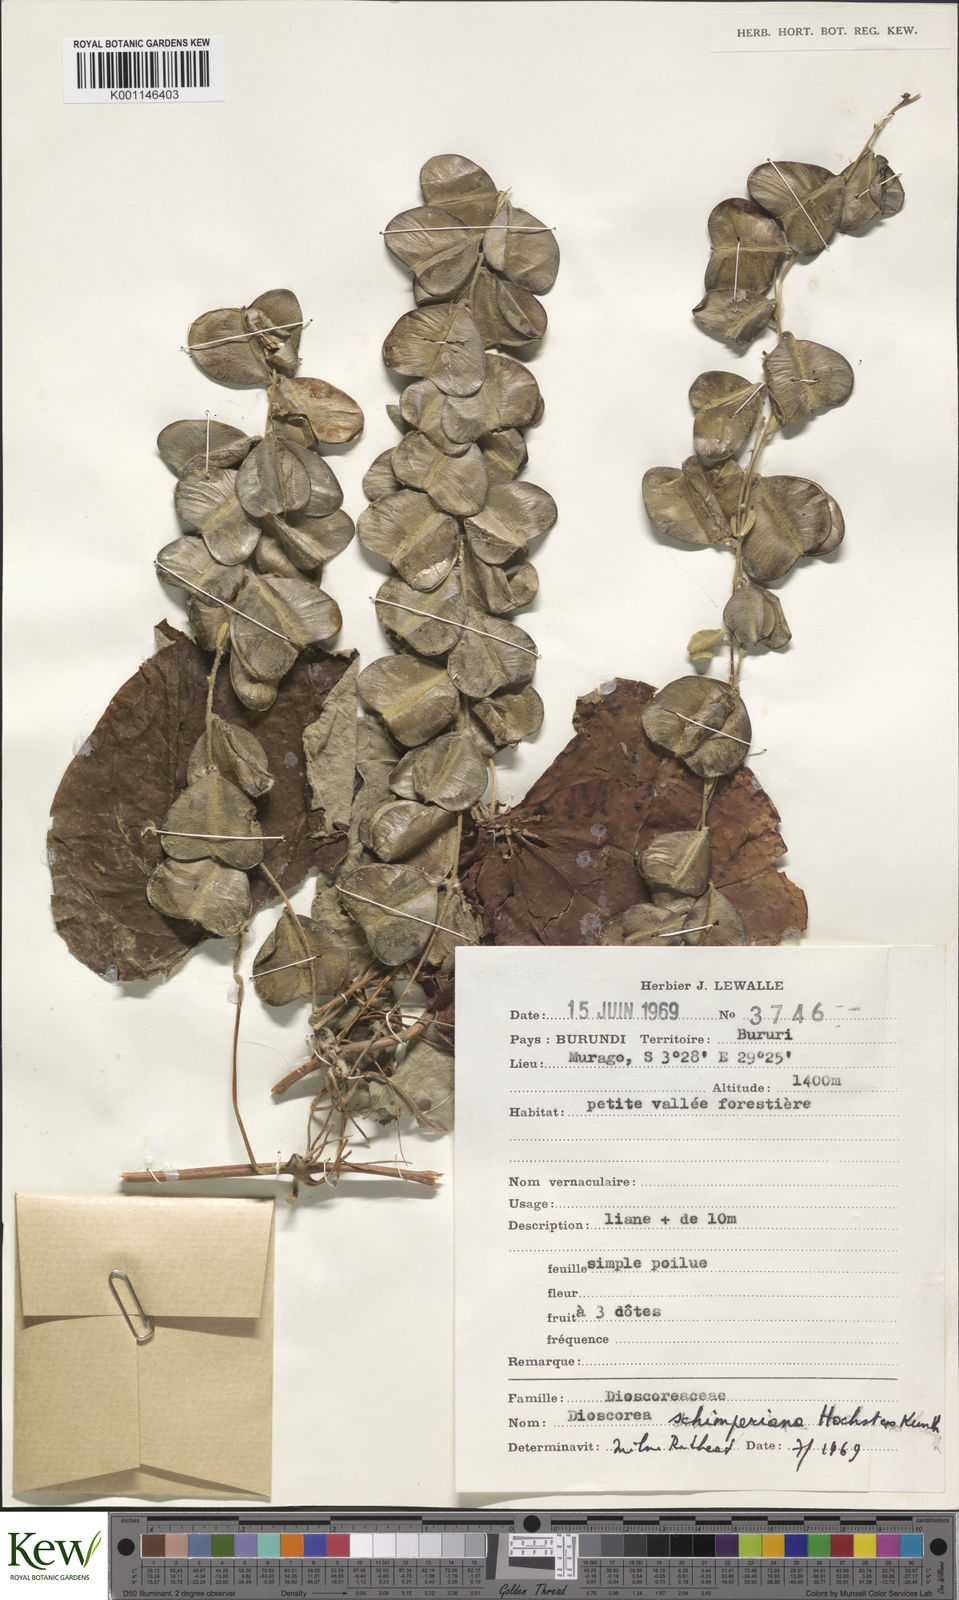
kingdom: Plantae
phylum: Tracheophyta
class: Liliopsida
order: Dioscoreales
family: Dioscoreaceae
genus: Dioscorea
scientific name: Dioscorea schimperiana
